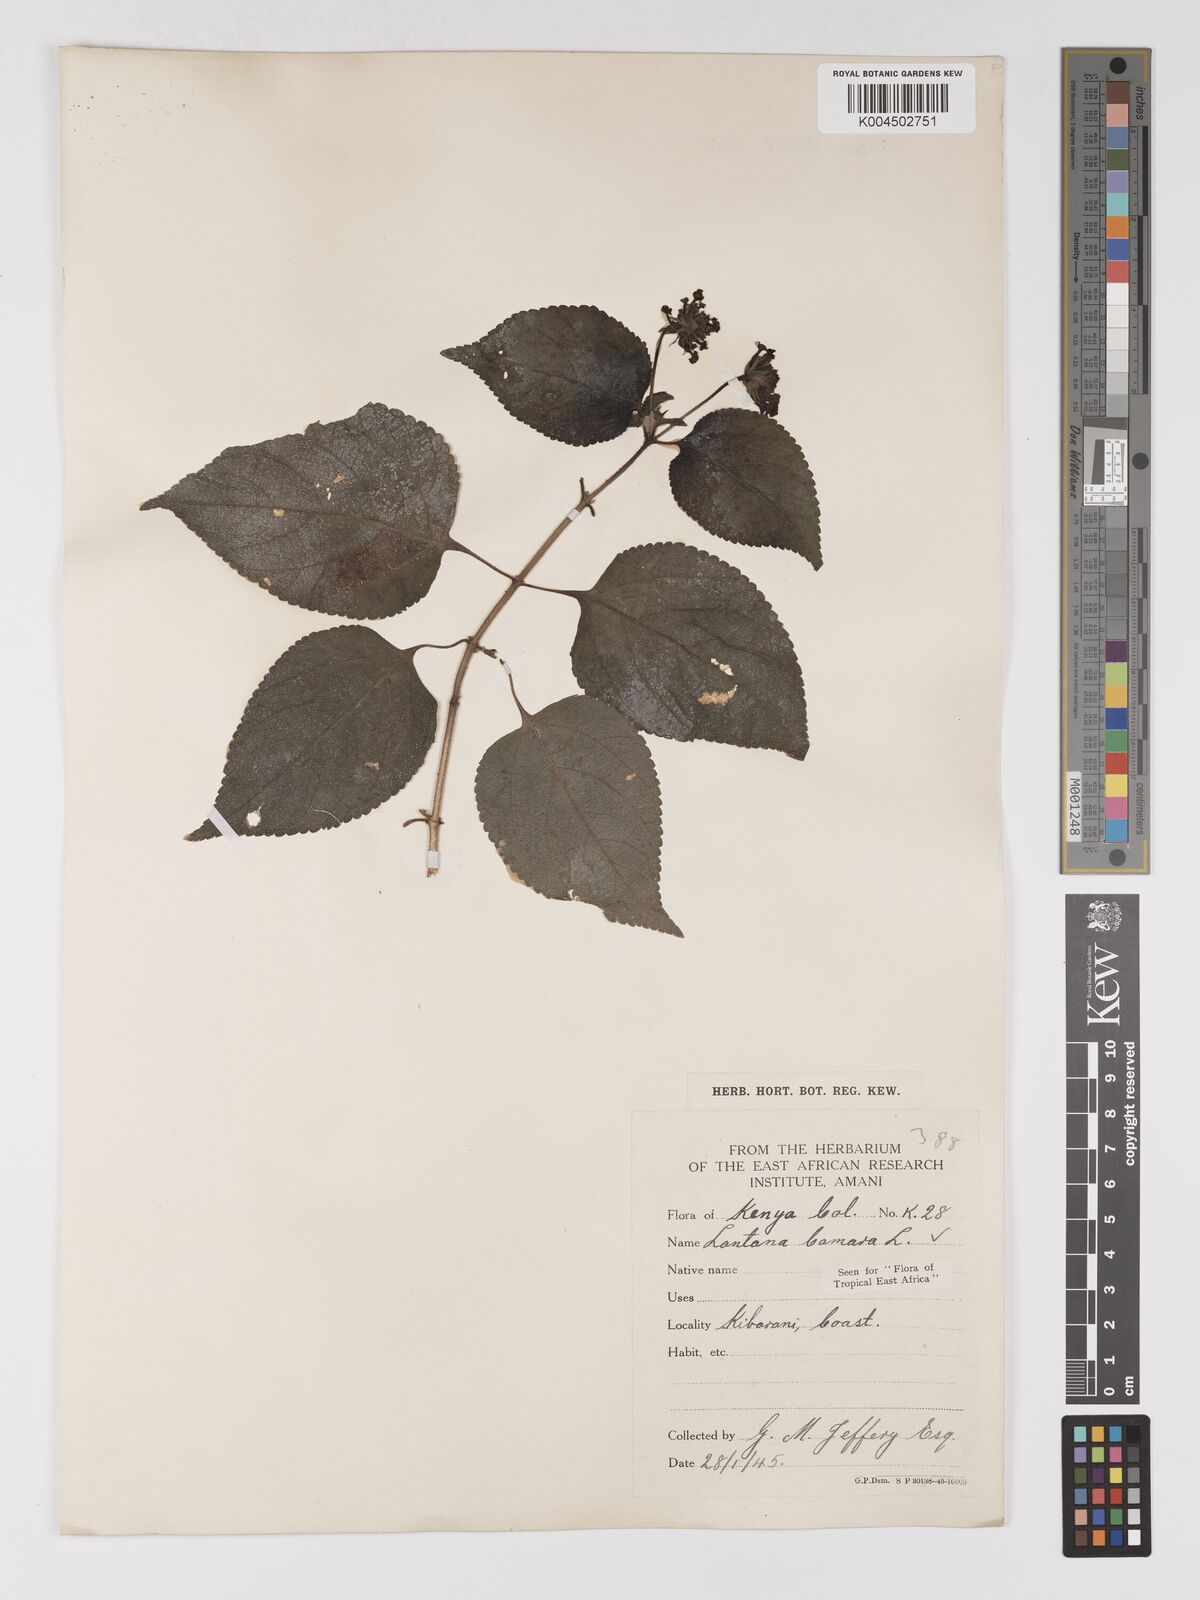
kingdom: Plantae
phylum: Tracheophyta
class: Magnoliopsida
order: Lamiales
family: Verbenaceae
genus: Lantana
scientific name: Lantana camara
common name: Lantana
